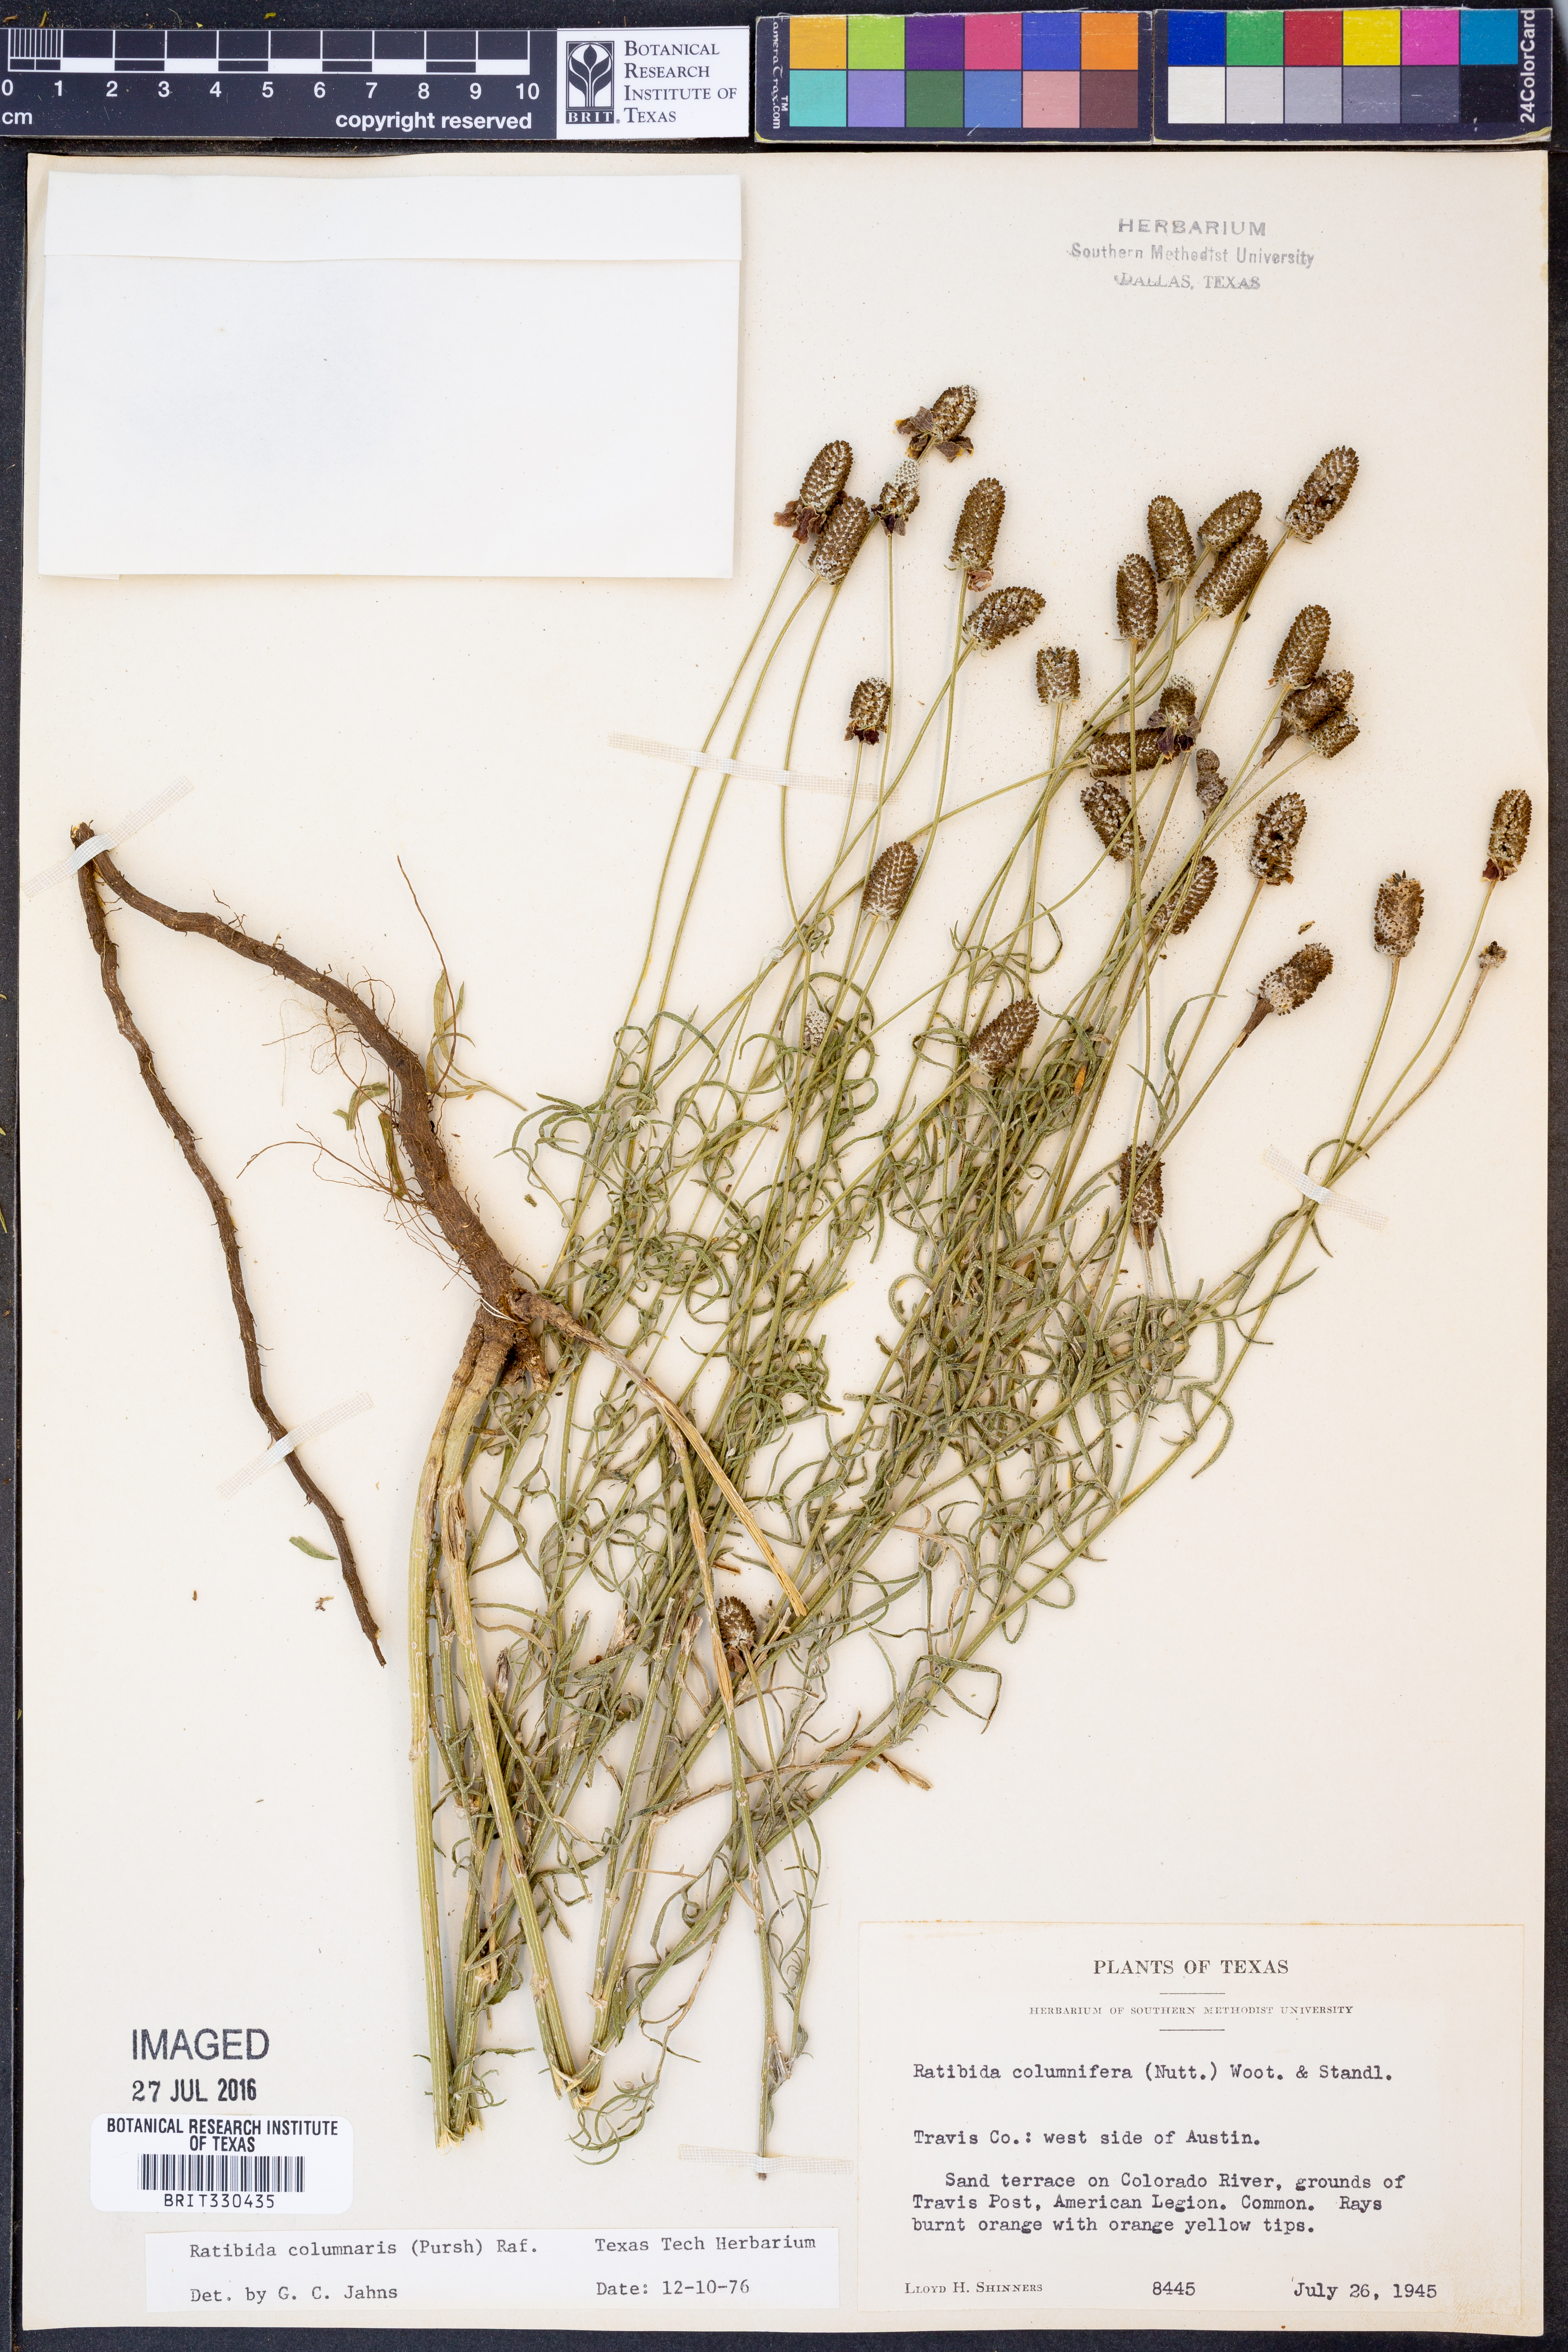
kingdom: Plantae
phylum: Tracheophyta
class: Magnoliopsida
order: Asterales
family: Asteraceae
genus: Ratibida
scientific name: Ratibida columnifera
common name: Prairie coneflower
